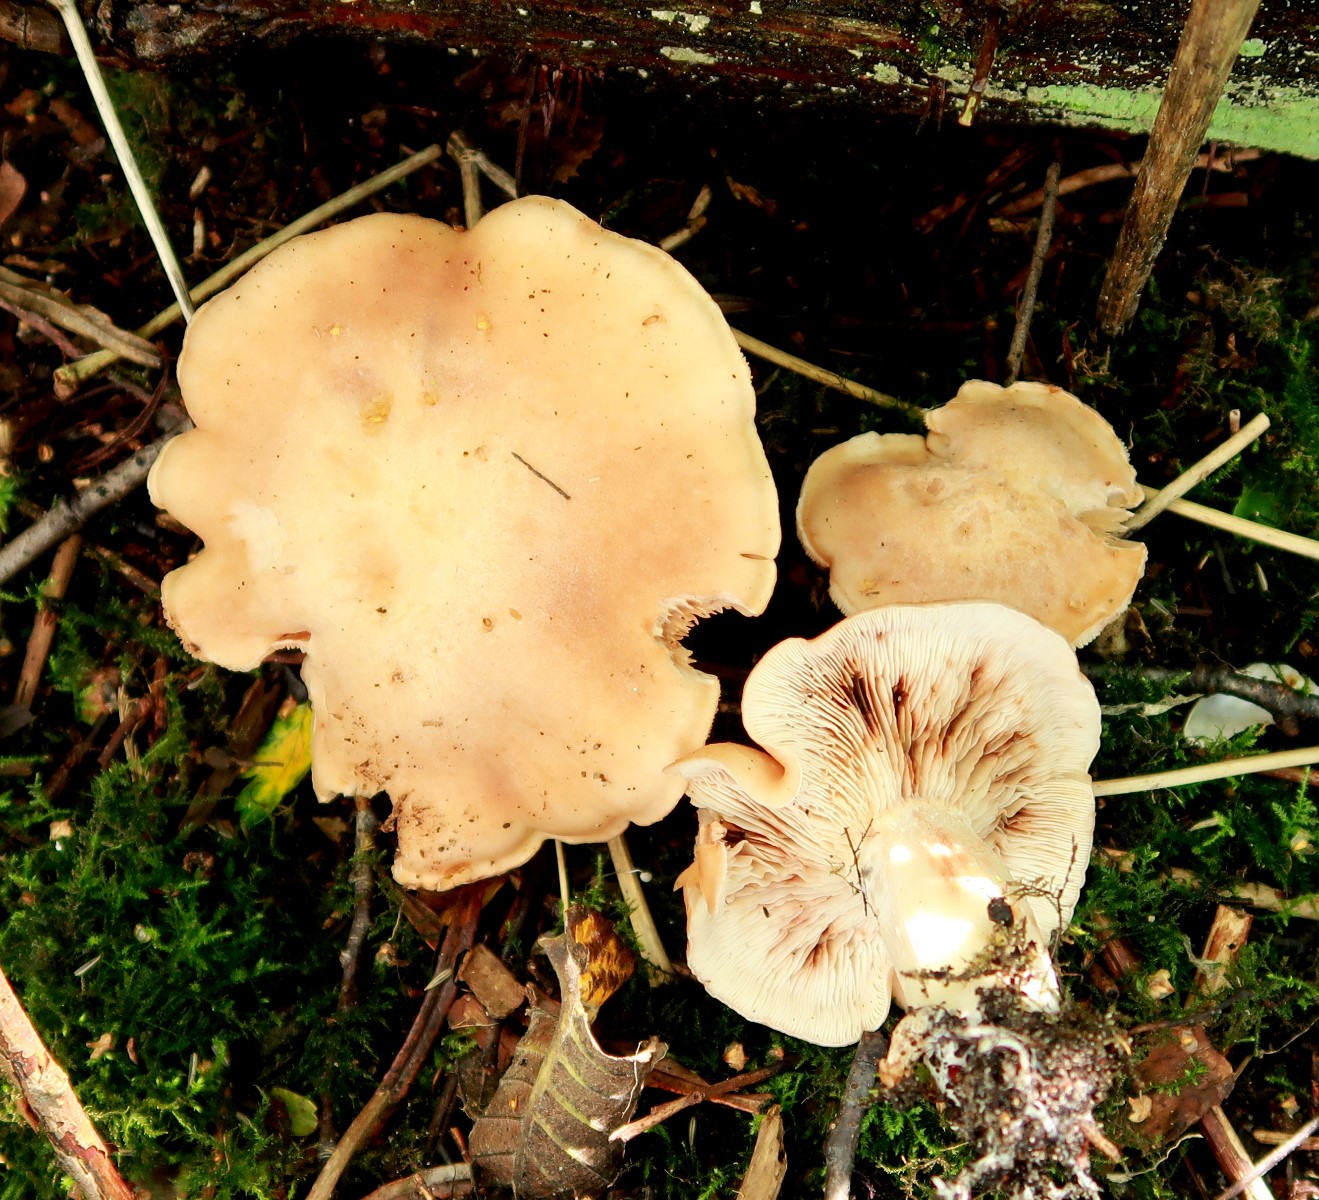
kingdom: Fungi
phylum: Basidiomycota
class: Agaricomycetes
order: Agaricales
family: Entolomataceae
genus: Clitopilus
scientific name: Clitopilus geminus
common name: kødfarvet troldhat
